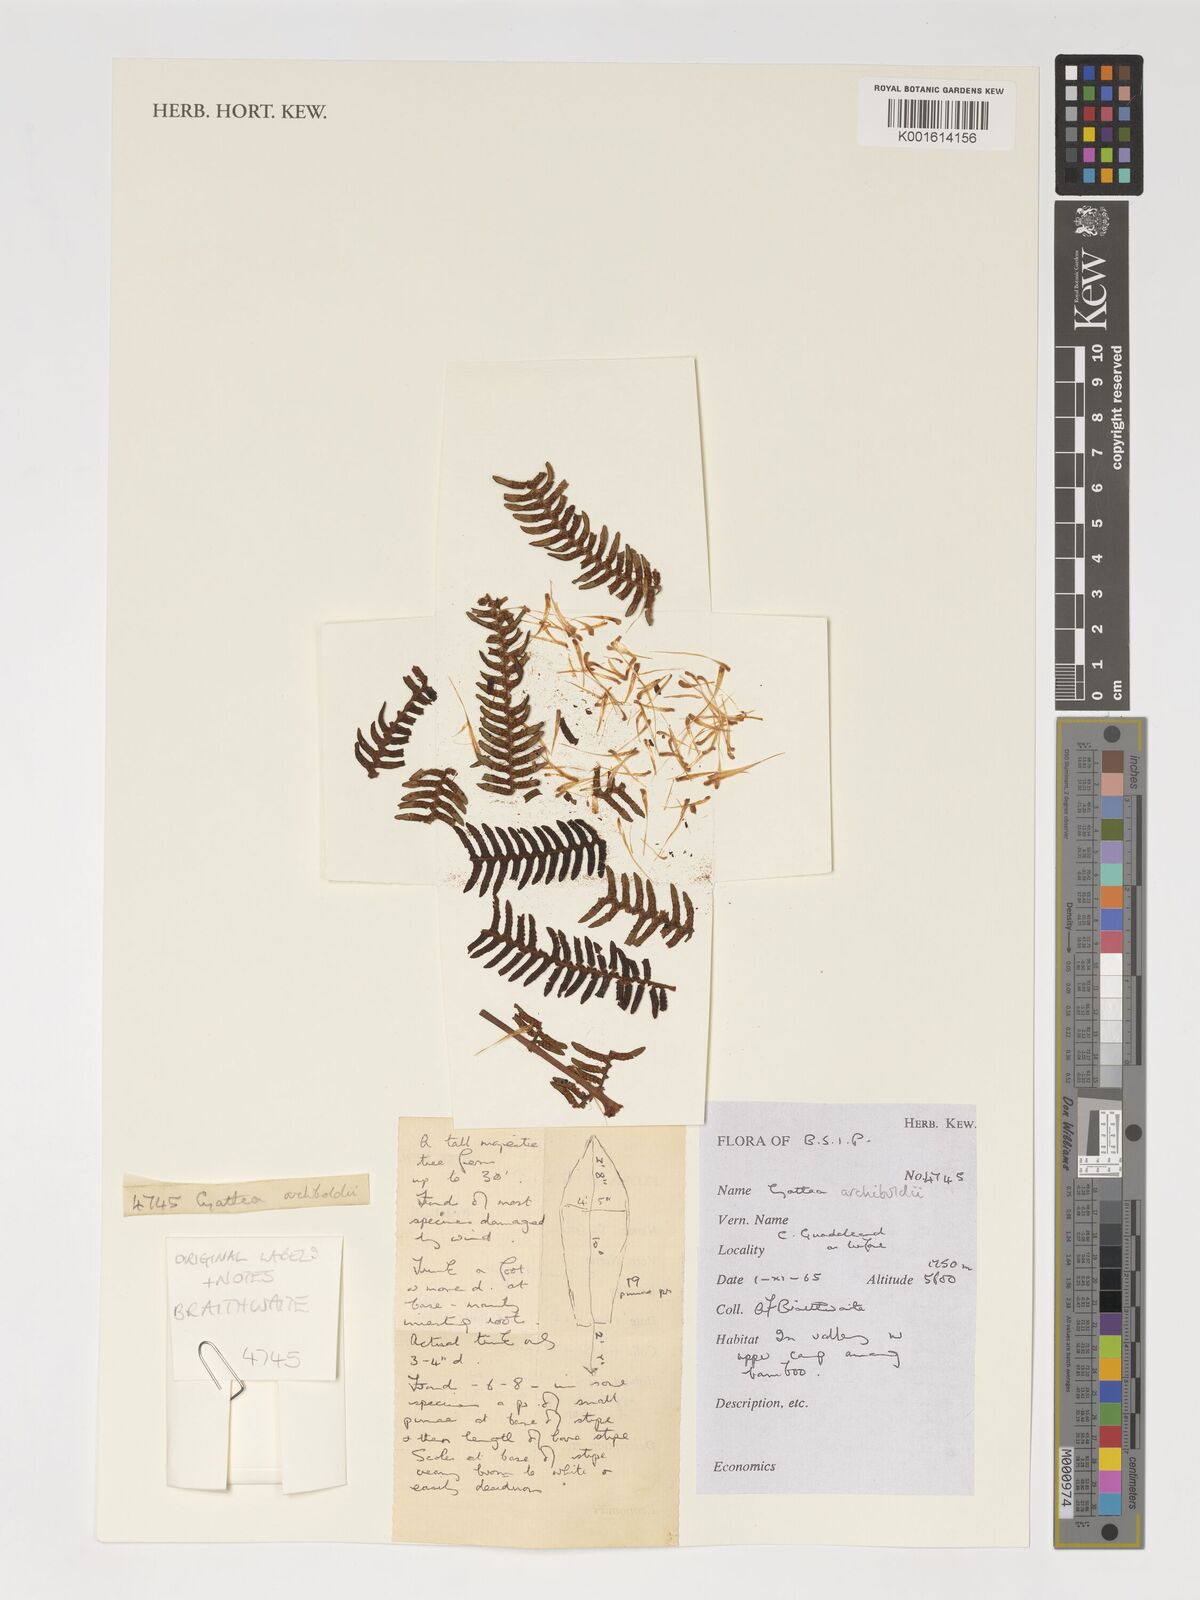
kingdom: Plantae
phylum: Tracheophyta
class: Polypodiopsida
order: Cyatheales
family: Cyatheaceae
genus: Alsophila
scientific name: Alsophila archboldii
